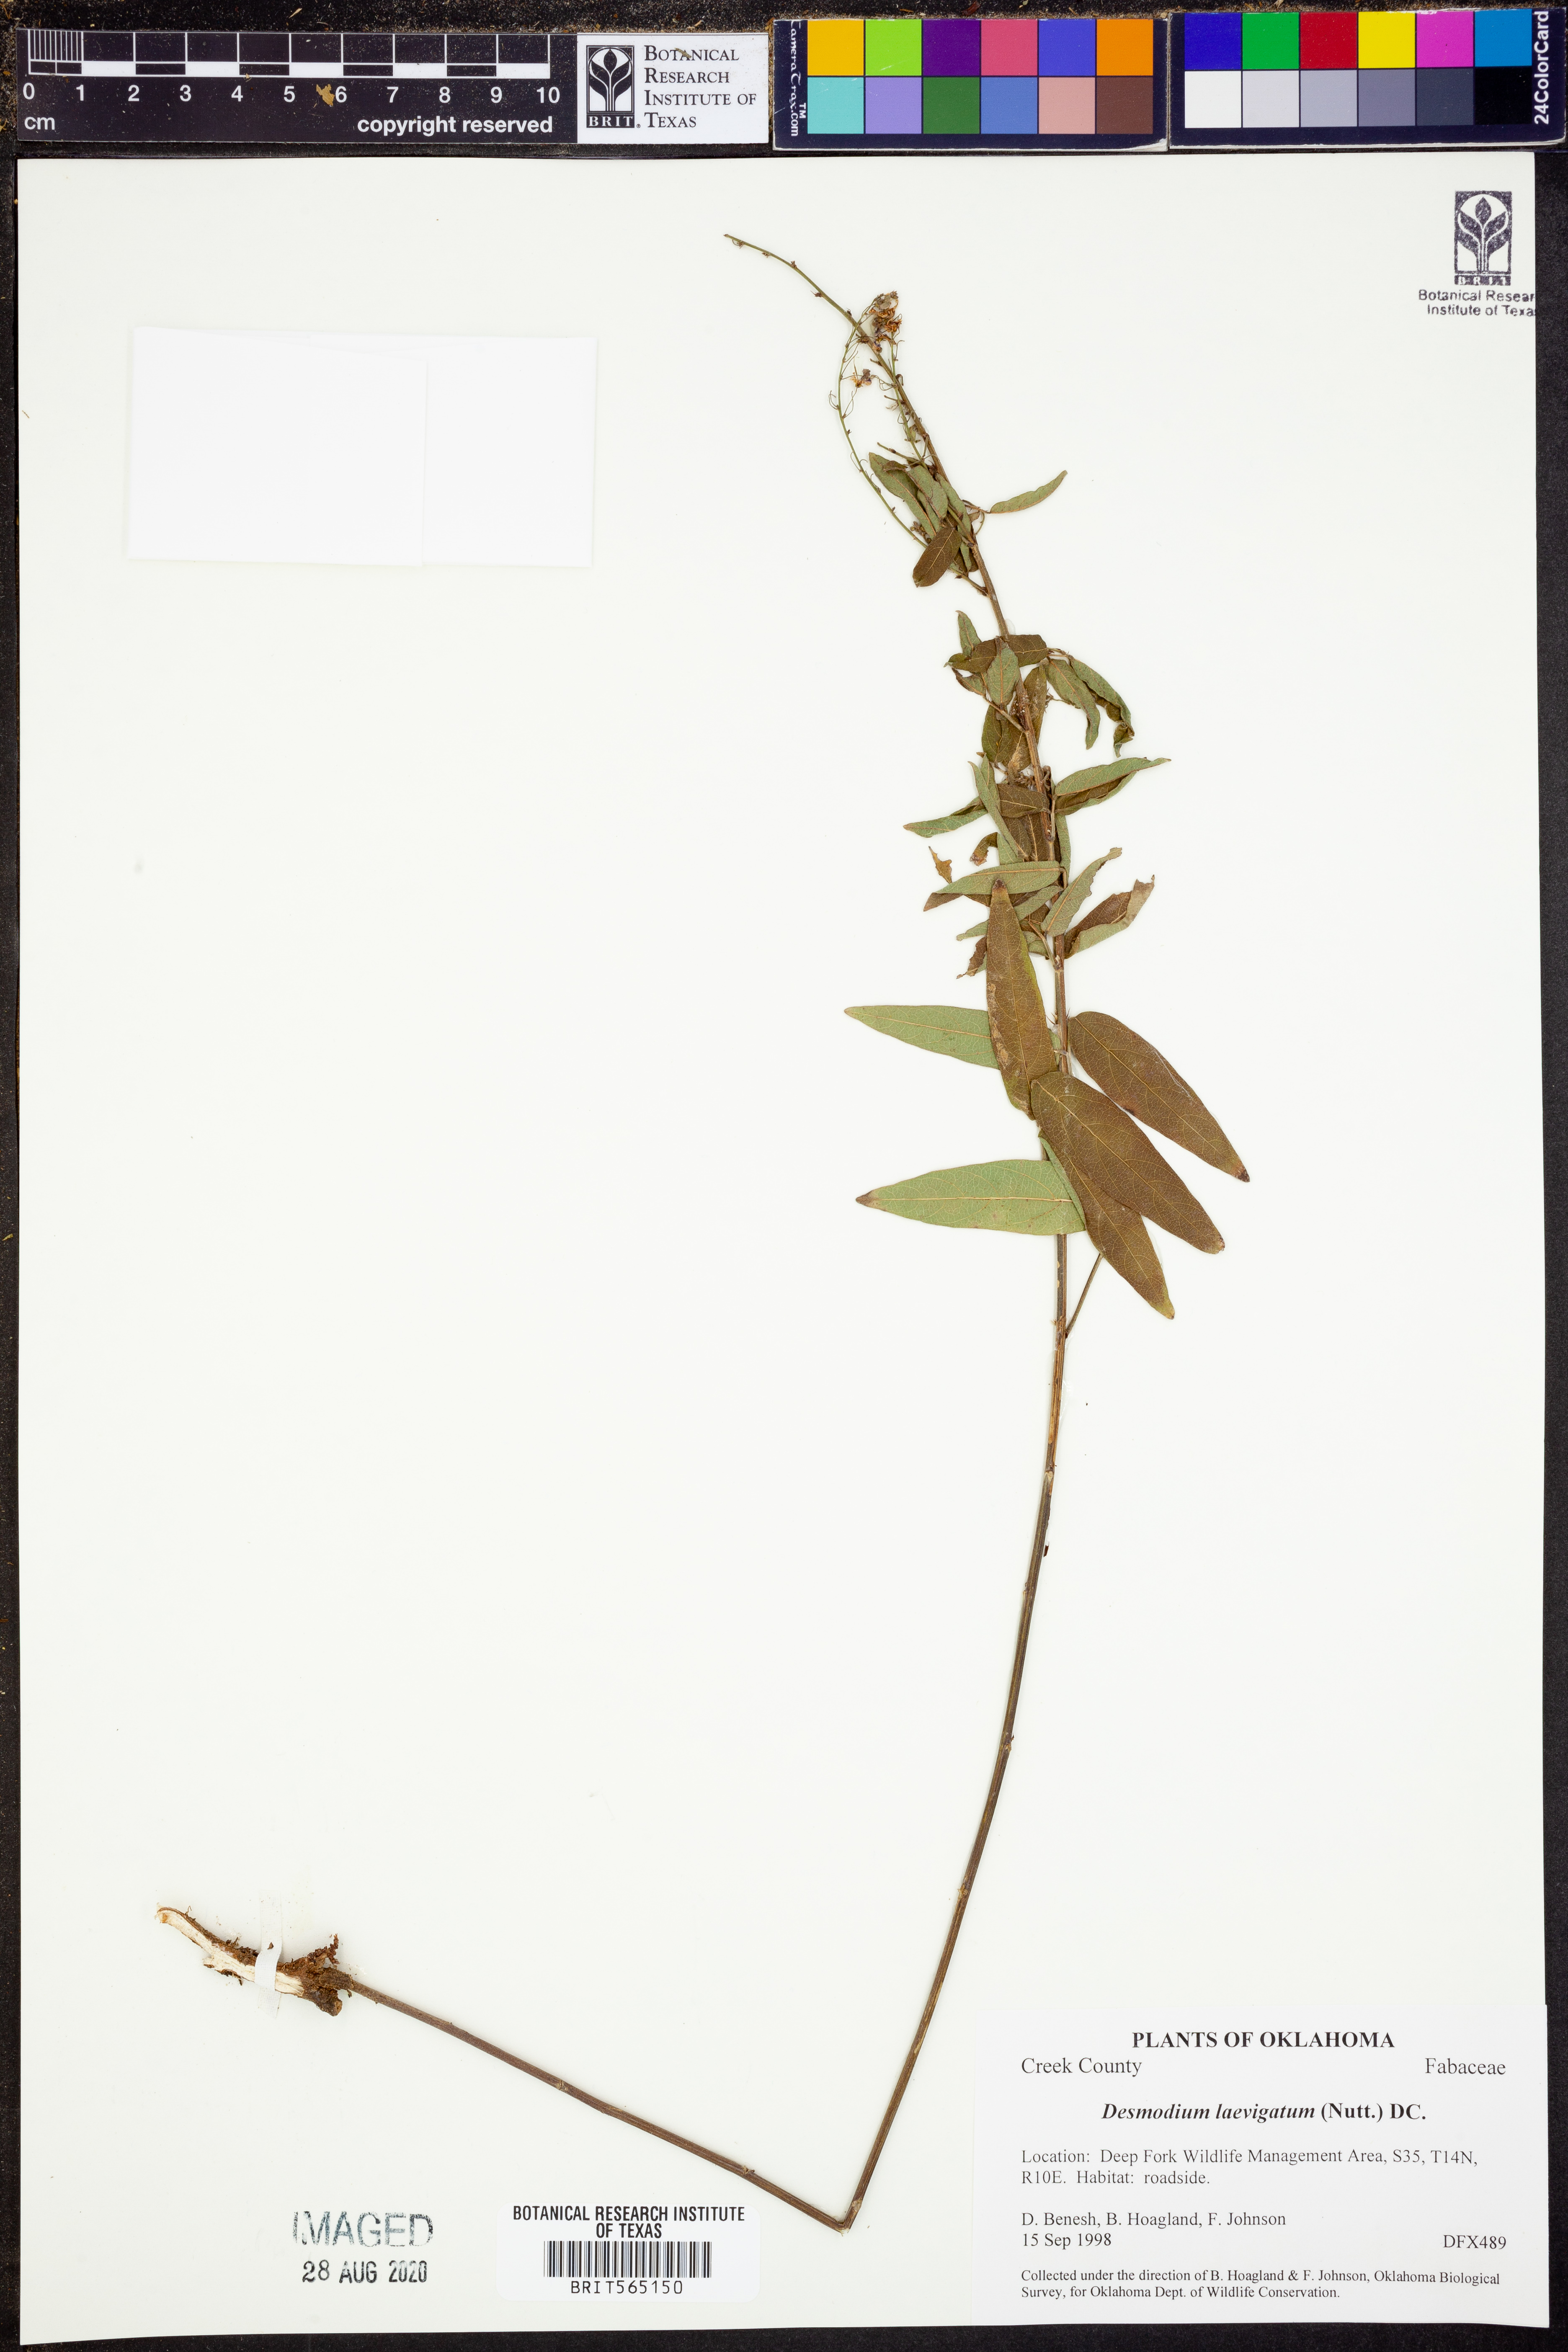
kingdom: Plantae
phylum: Tracheophyta
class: Magnoliopsida
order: Fabales
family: Fabaceae
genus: Desmodium
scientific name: Desmodium laevigatum
